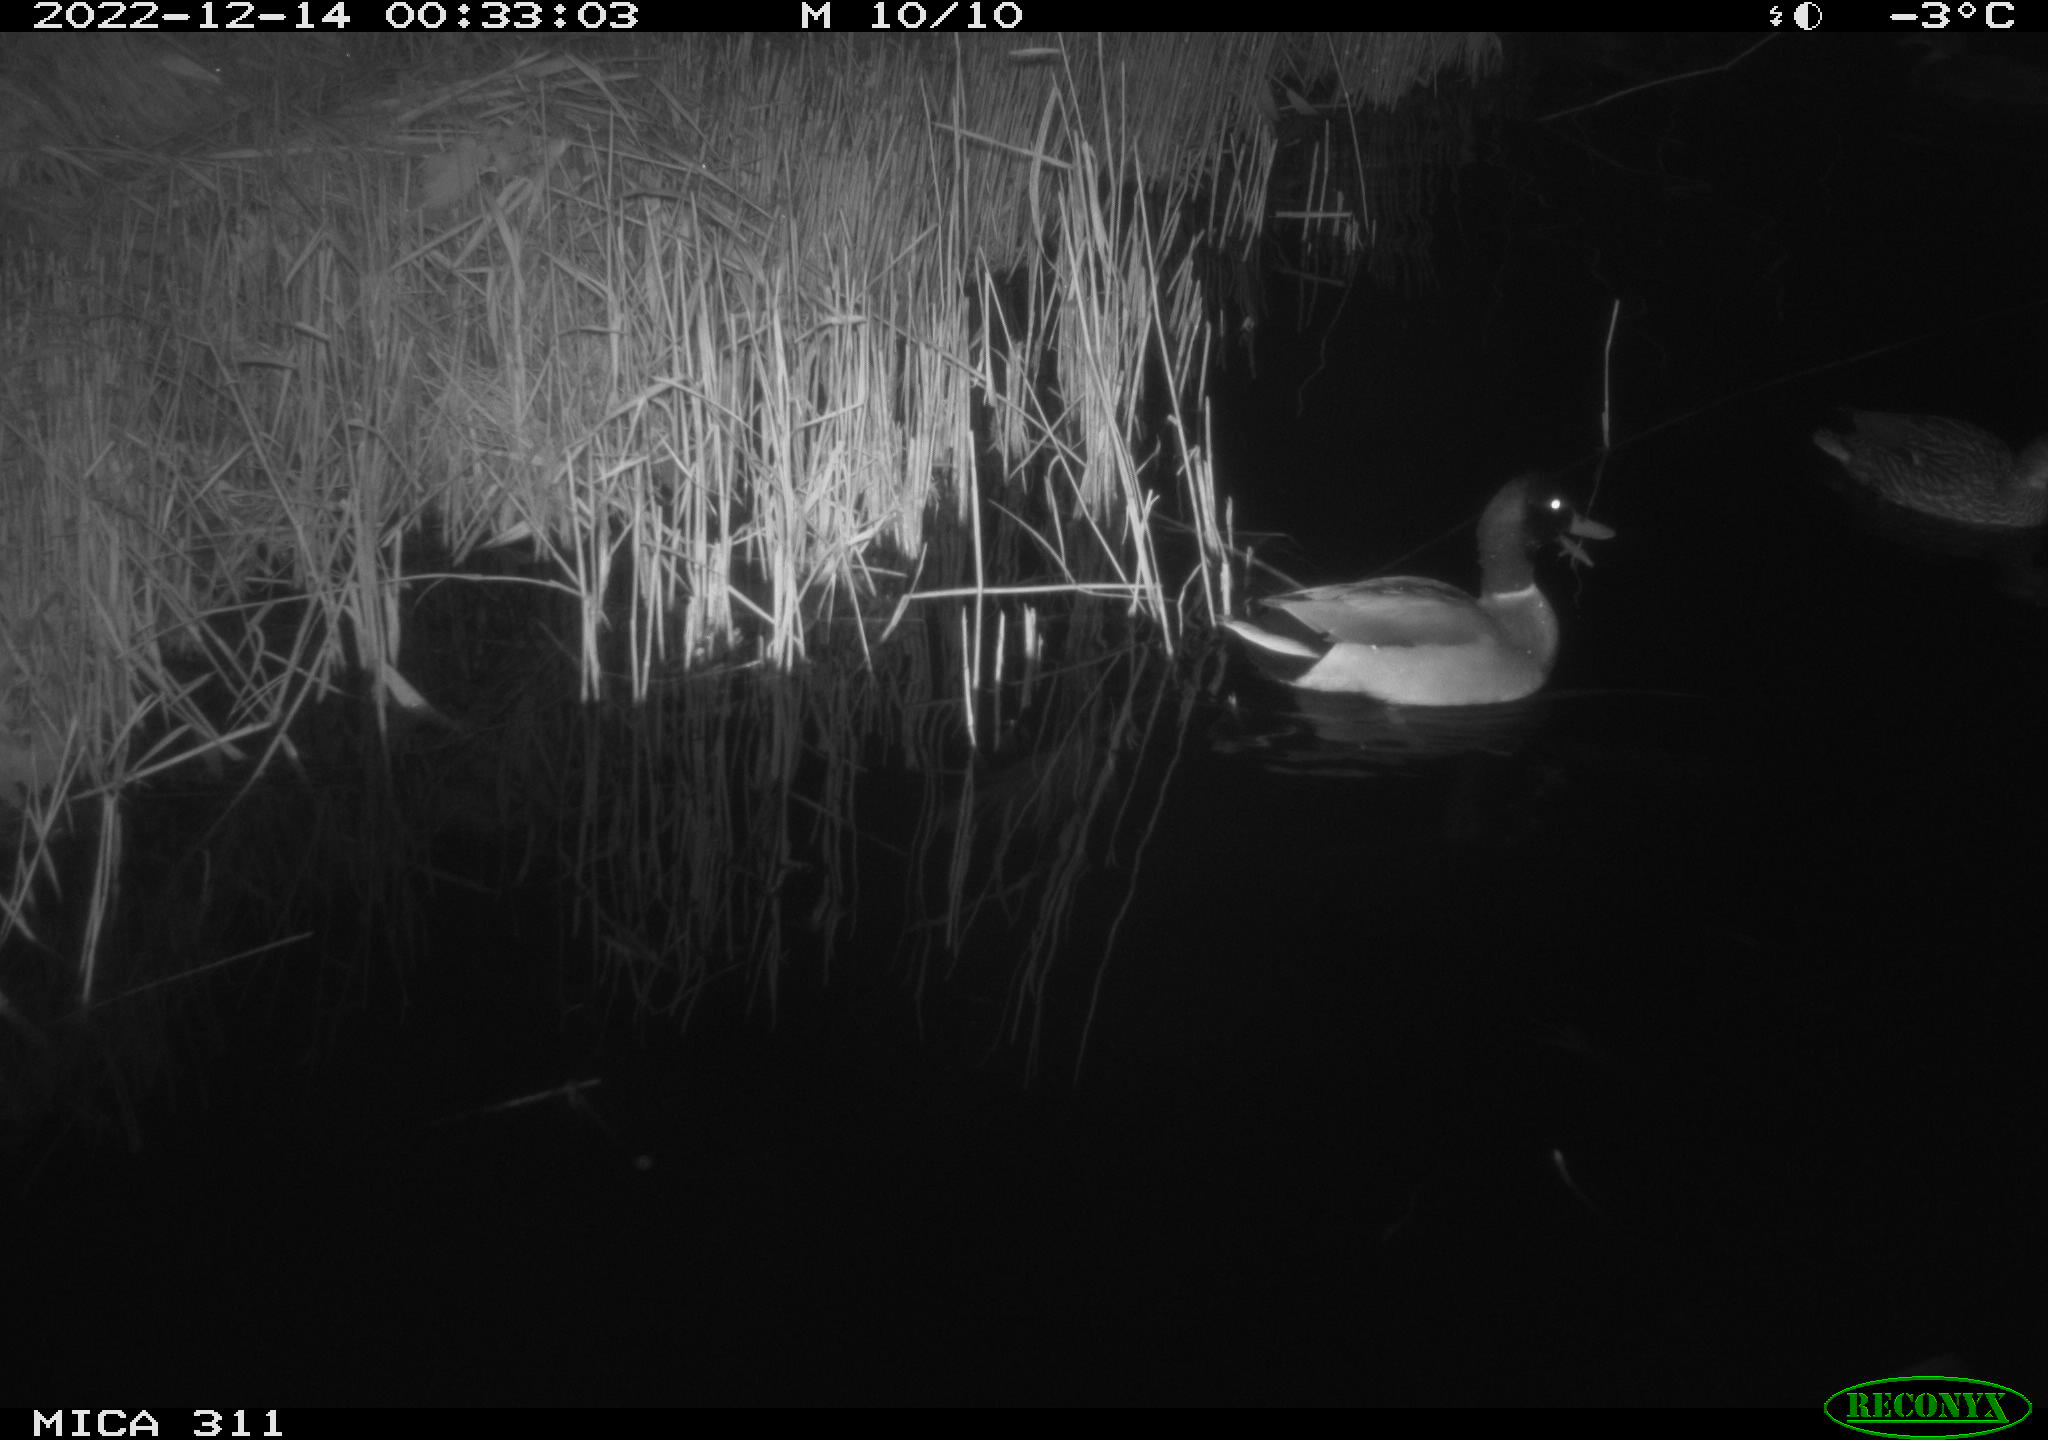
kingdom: Animalia
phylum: Chordata
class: Aves
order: Anseriformes
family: Anatidae
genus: Anas
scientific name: Anas
